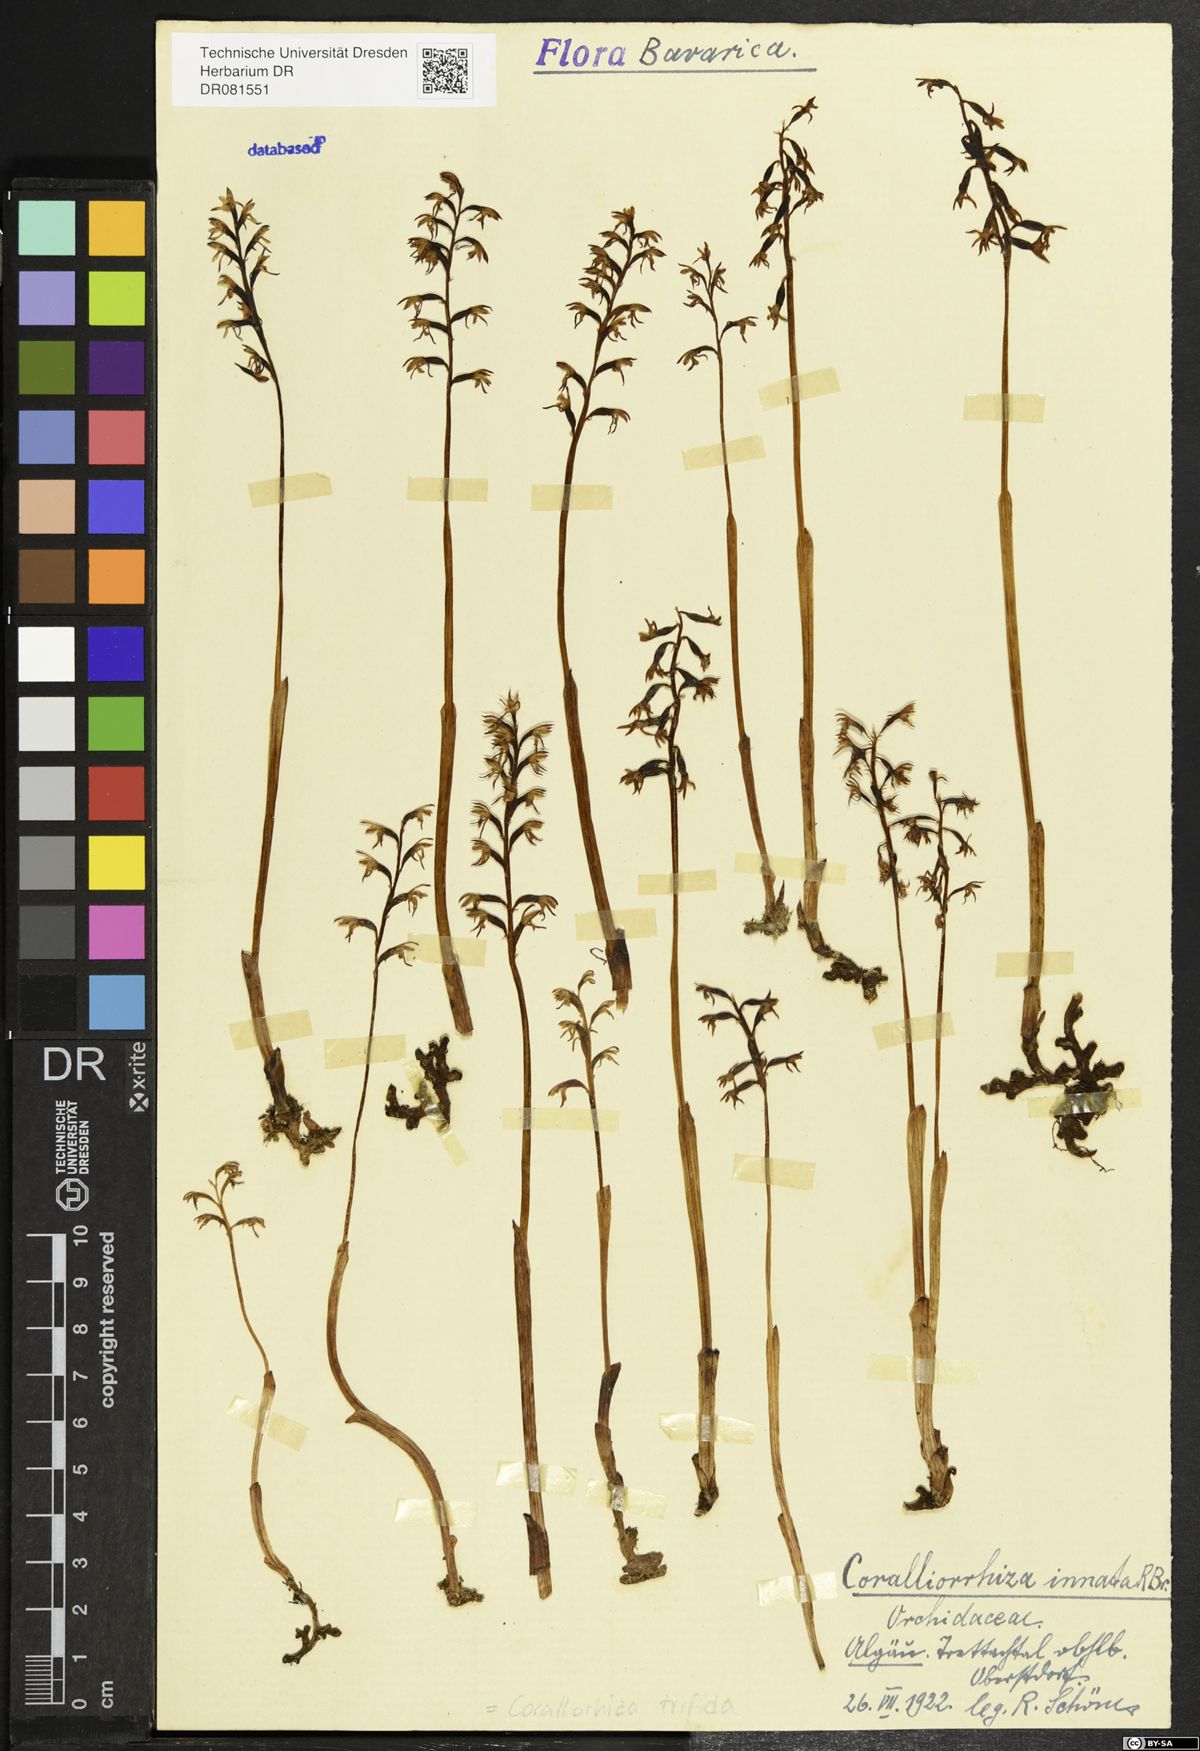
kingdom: Plantae
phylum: Tracheophyta
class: Liliopsida
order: Asparagales
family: Orchidaceae
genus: Corallorhiza
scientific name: Corallorhiza trifida
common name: Yellow coralroot
